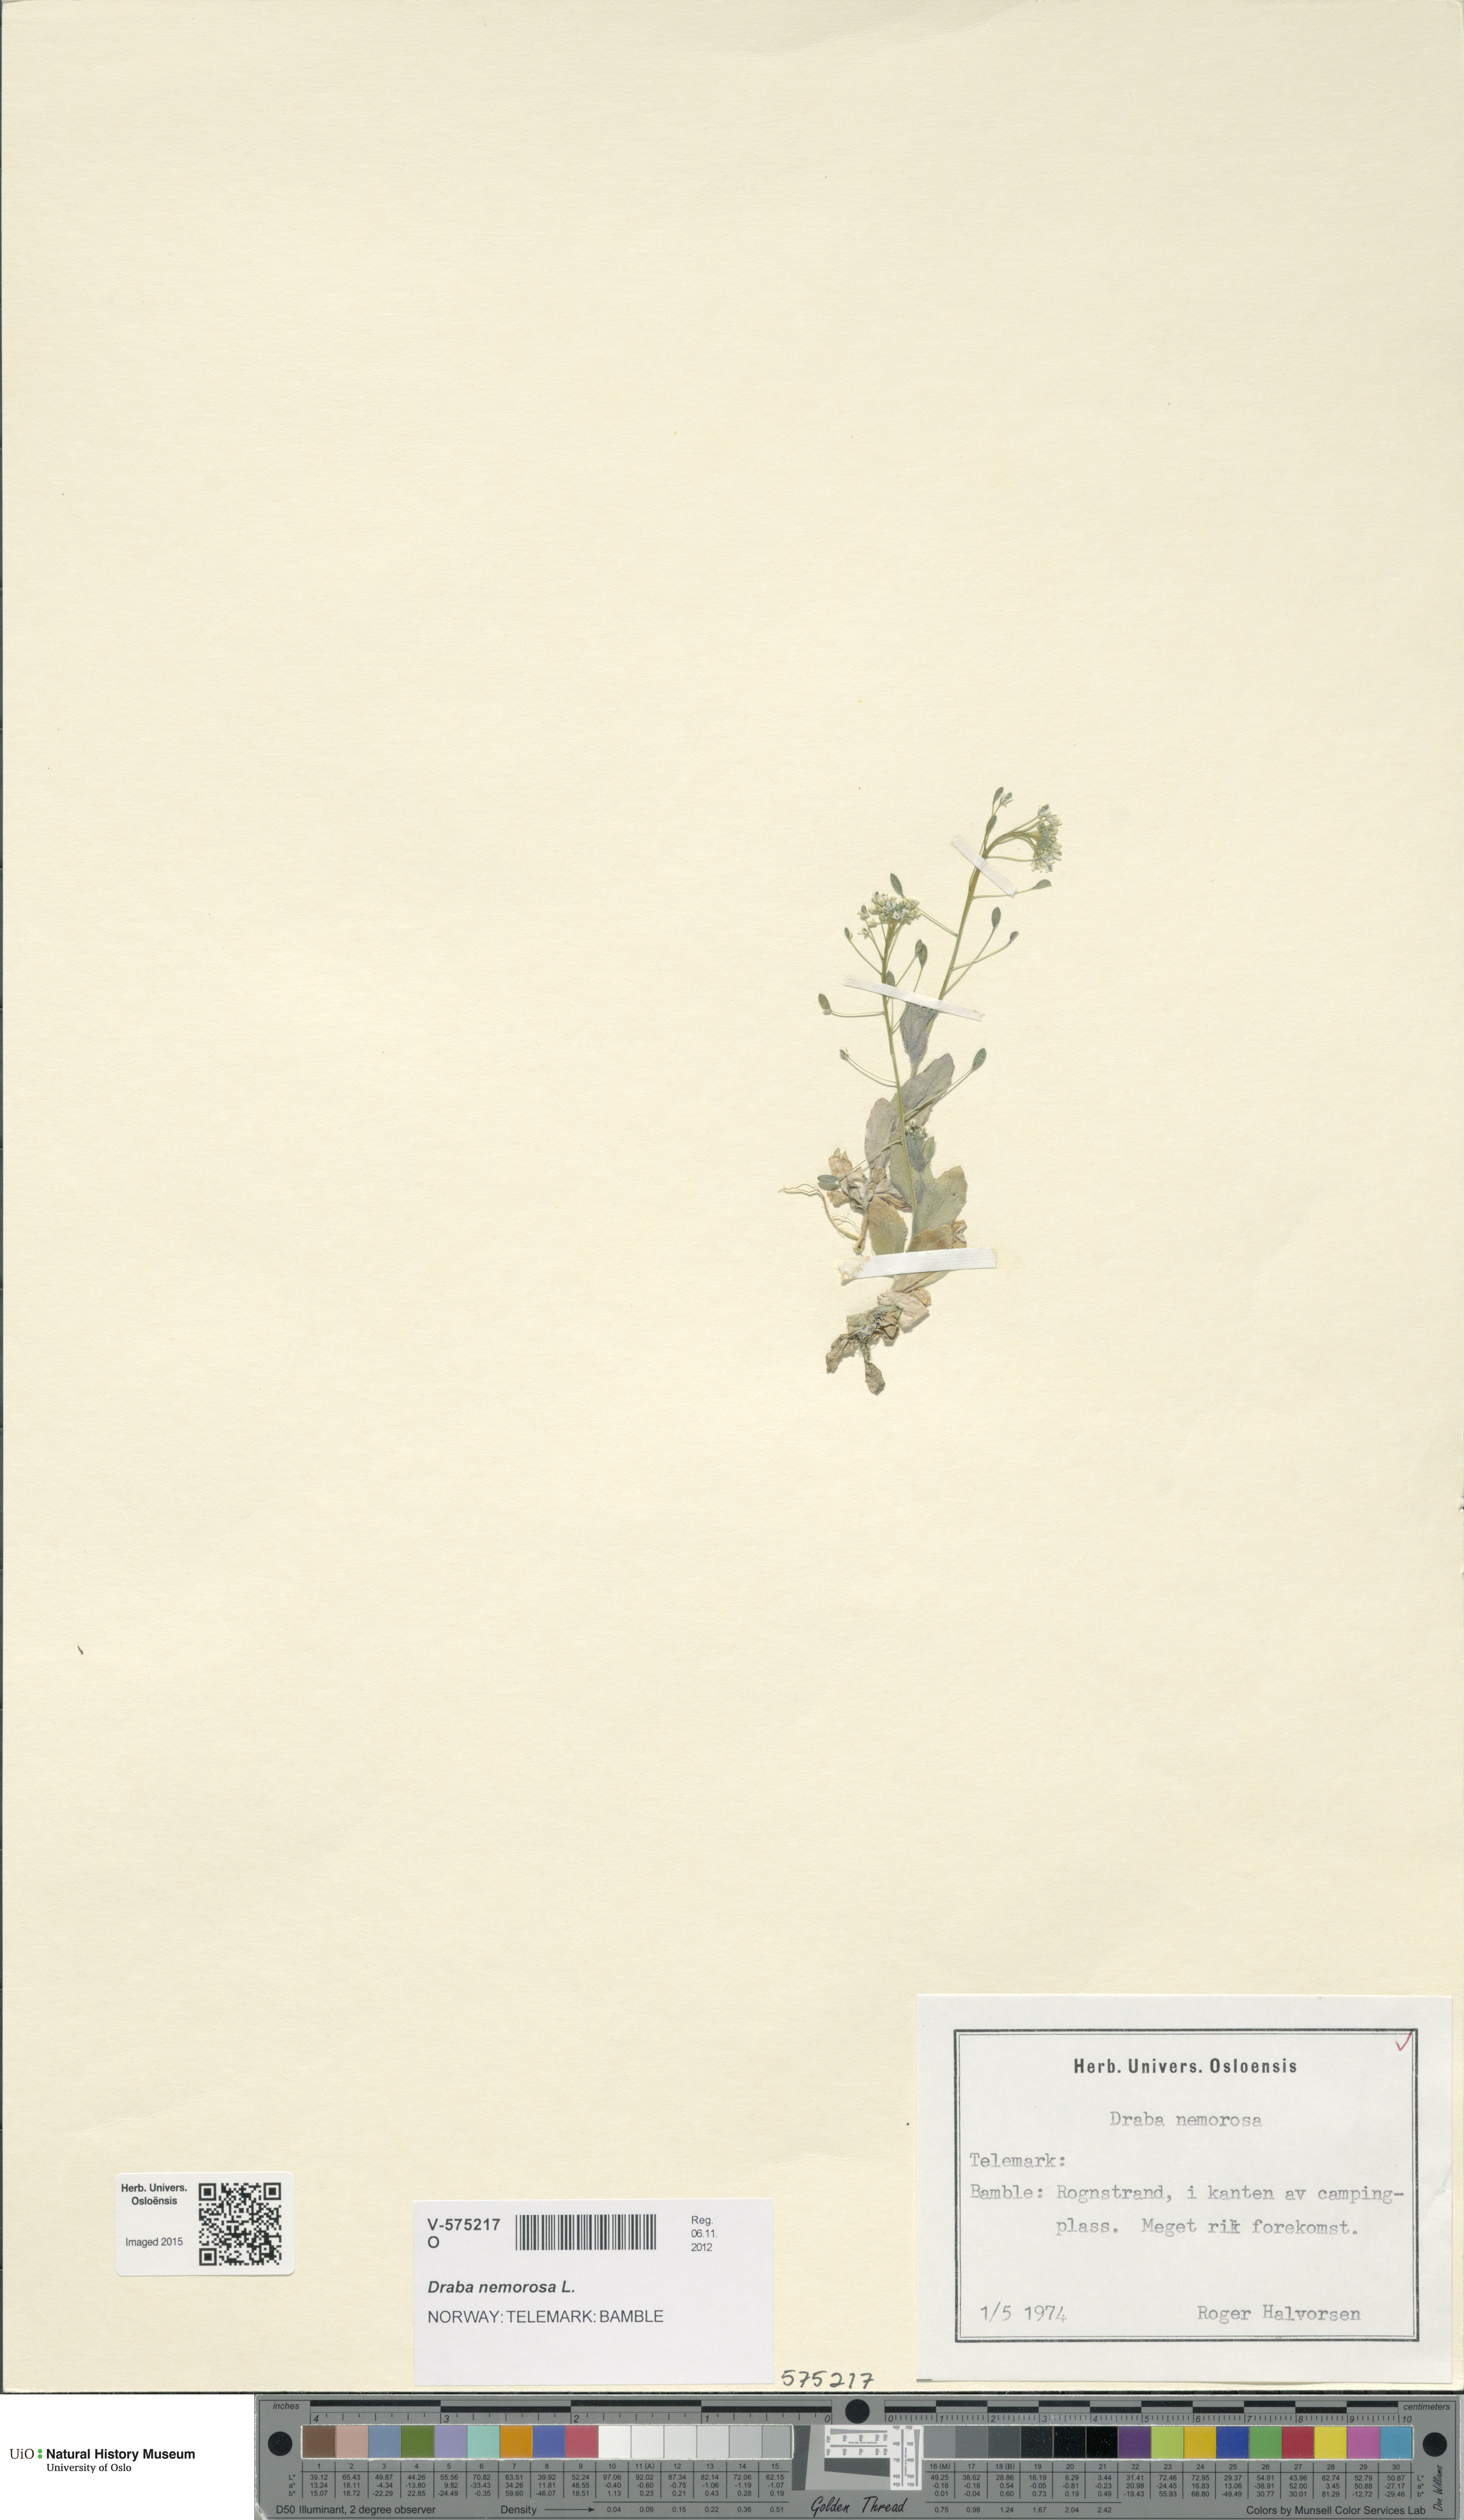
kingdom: Plantae
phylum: Tracheophyta
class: Magnoliopsida
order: Brassicales
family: Brassicaceae
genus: Draba
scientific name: Draba nemorosa
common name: Wood whitlow-grass
